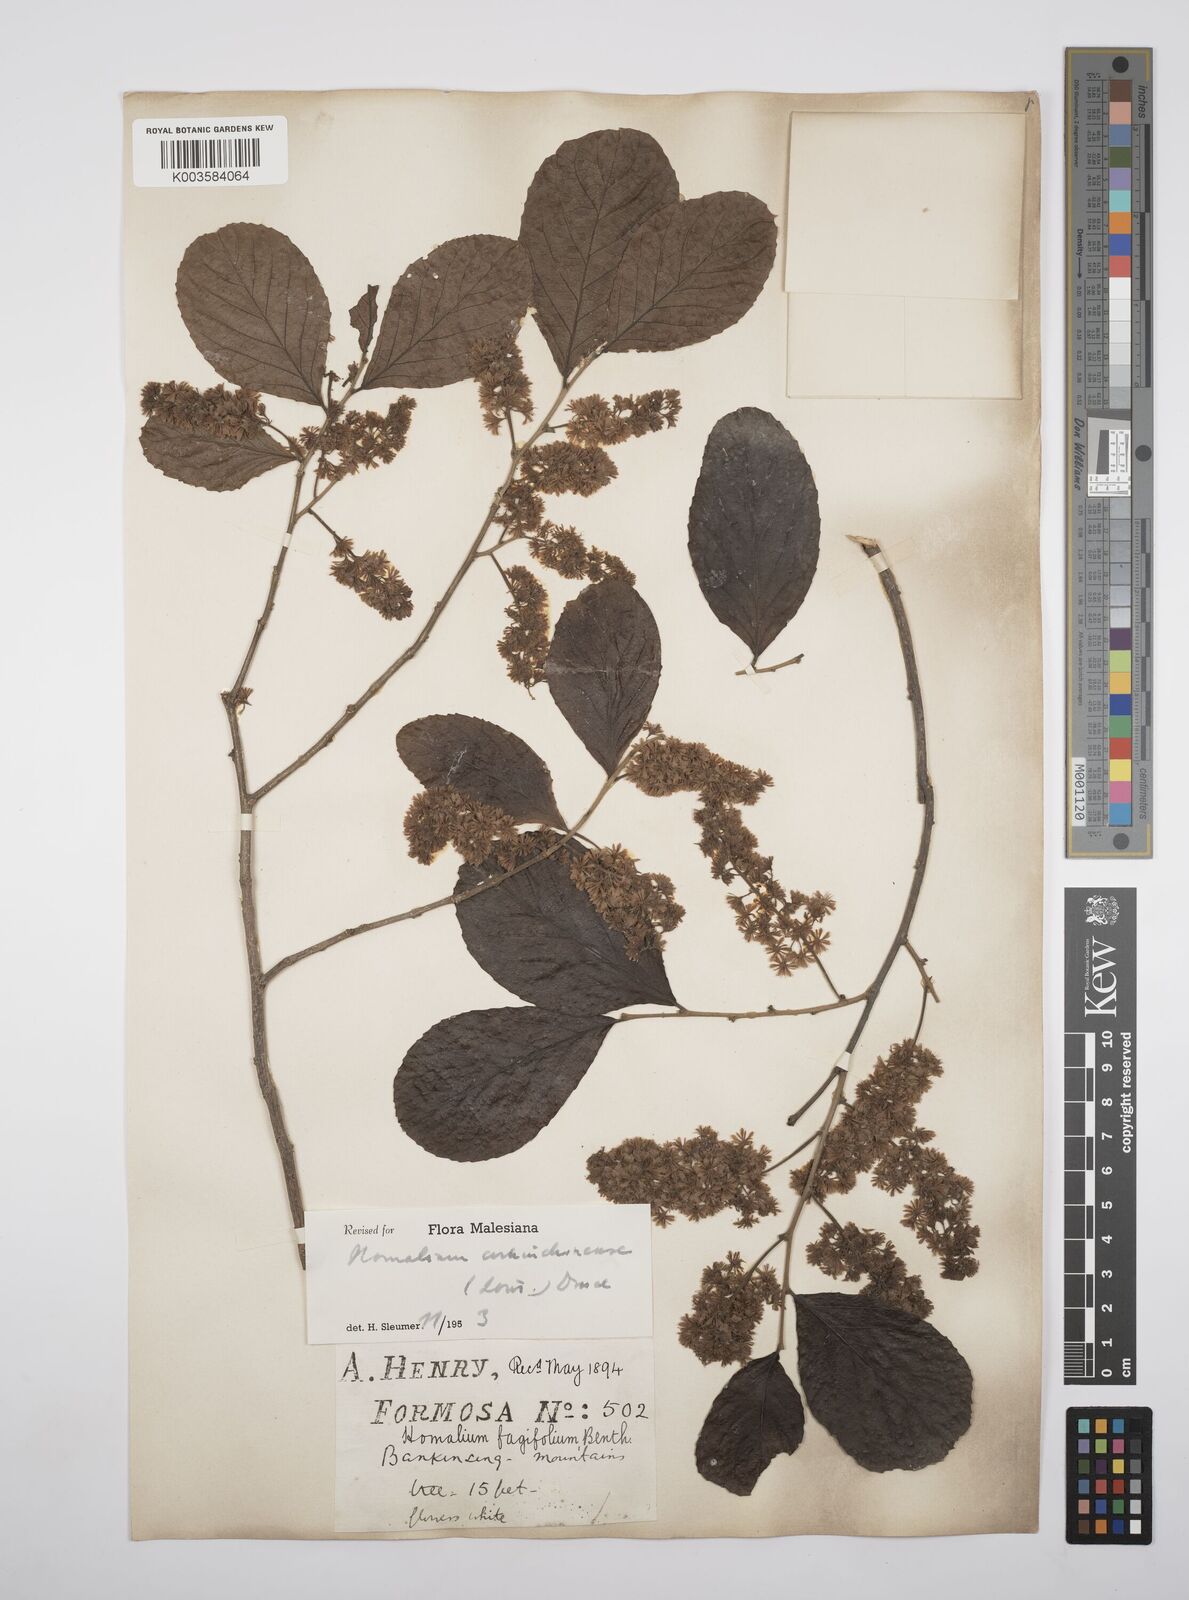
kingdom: Plantae
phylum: Tracheophyta
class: Magnoliopsida
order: Malpighiales
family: Salicaceae
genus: Homalium
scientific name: Homalium cochinchinensis
